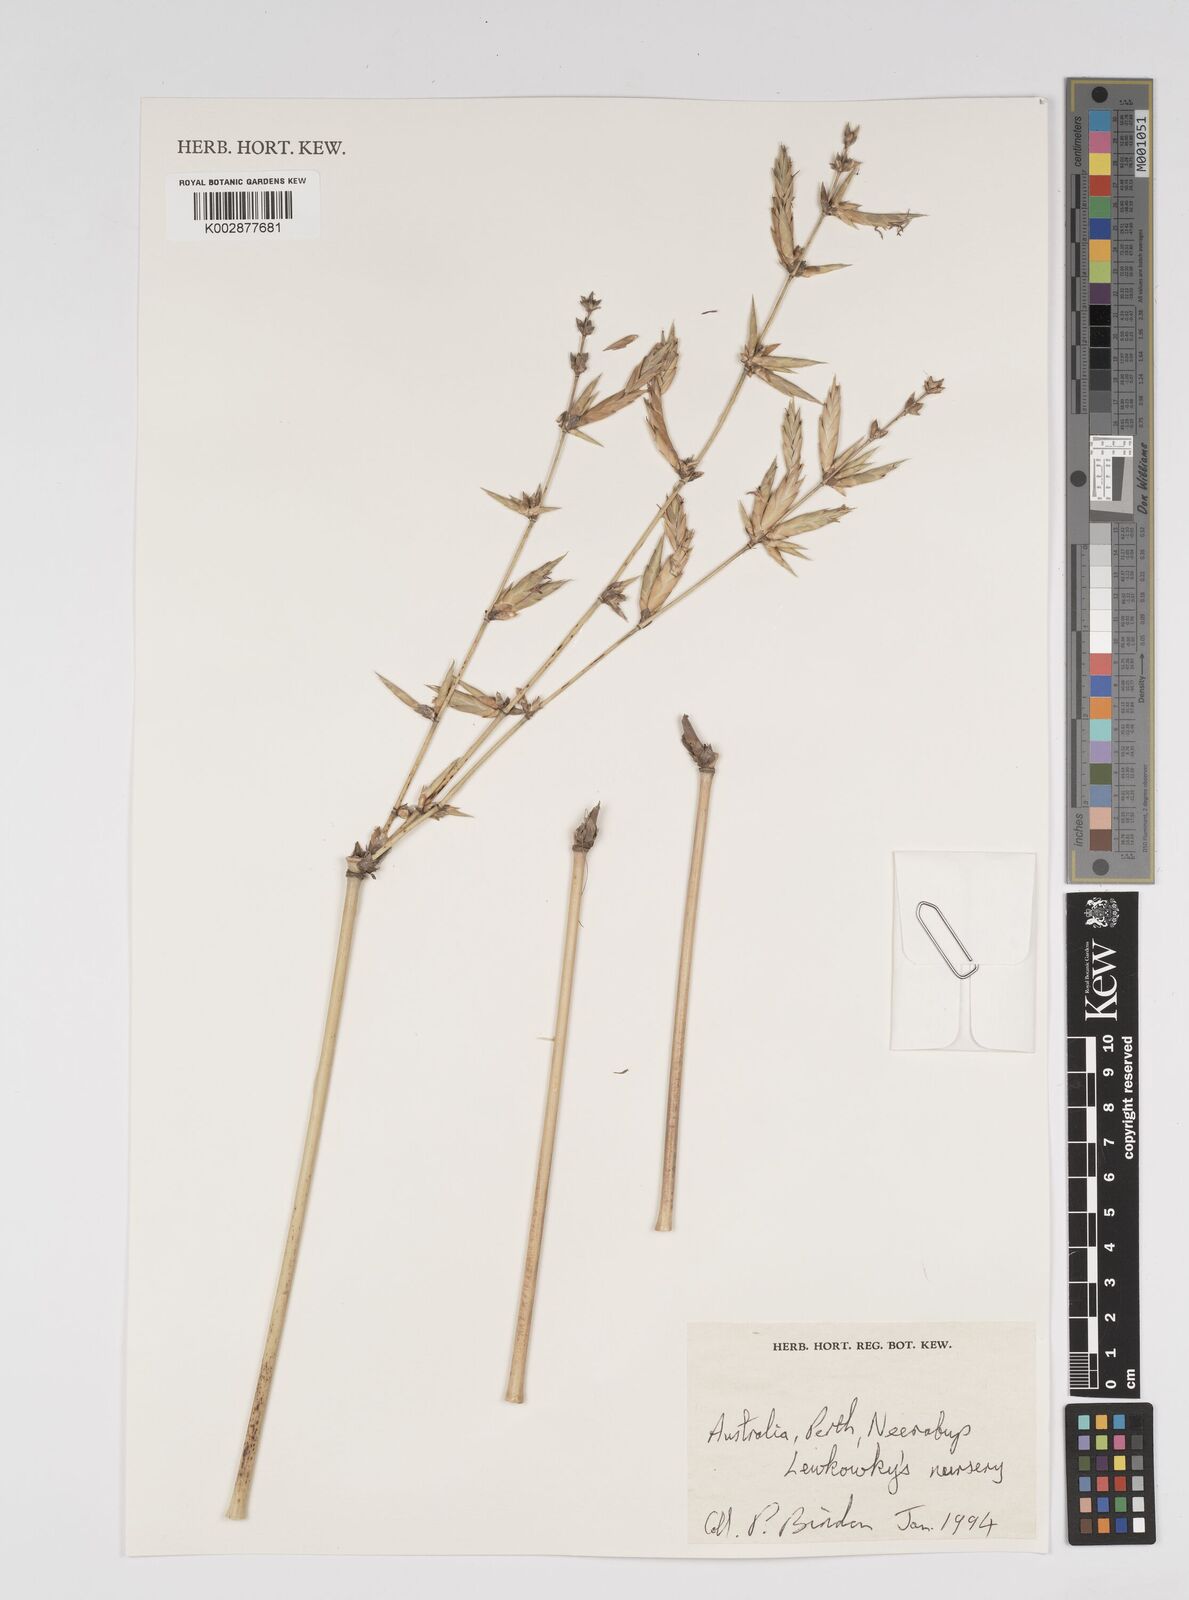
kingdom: Plantae
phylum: Tracheophyta
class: Liliopsida
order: Poales
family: Poaceae
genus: Bambusa
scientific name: Bambusa
